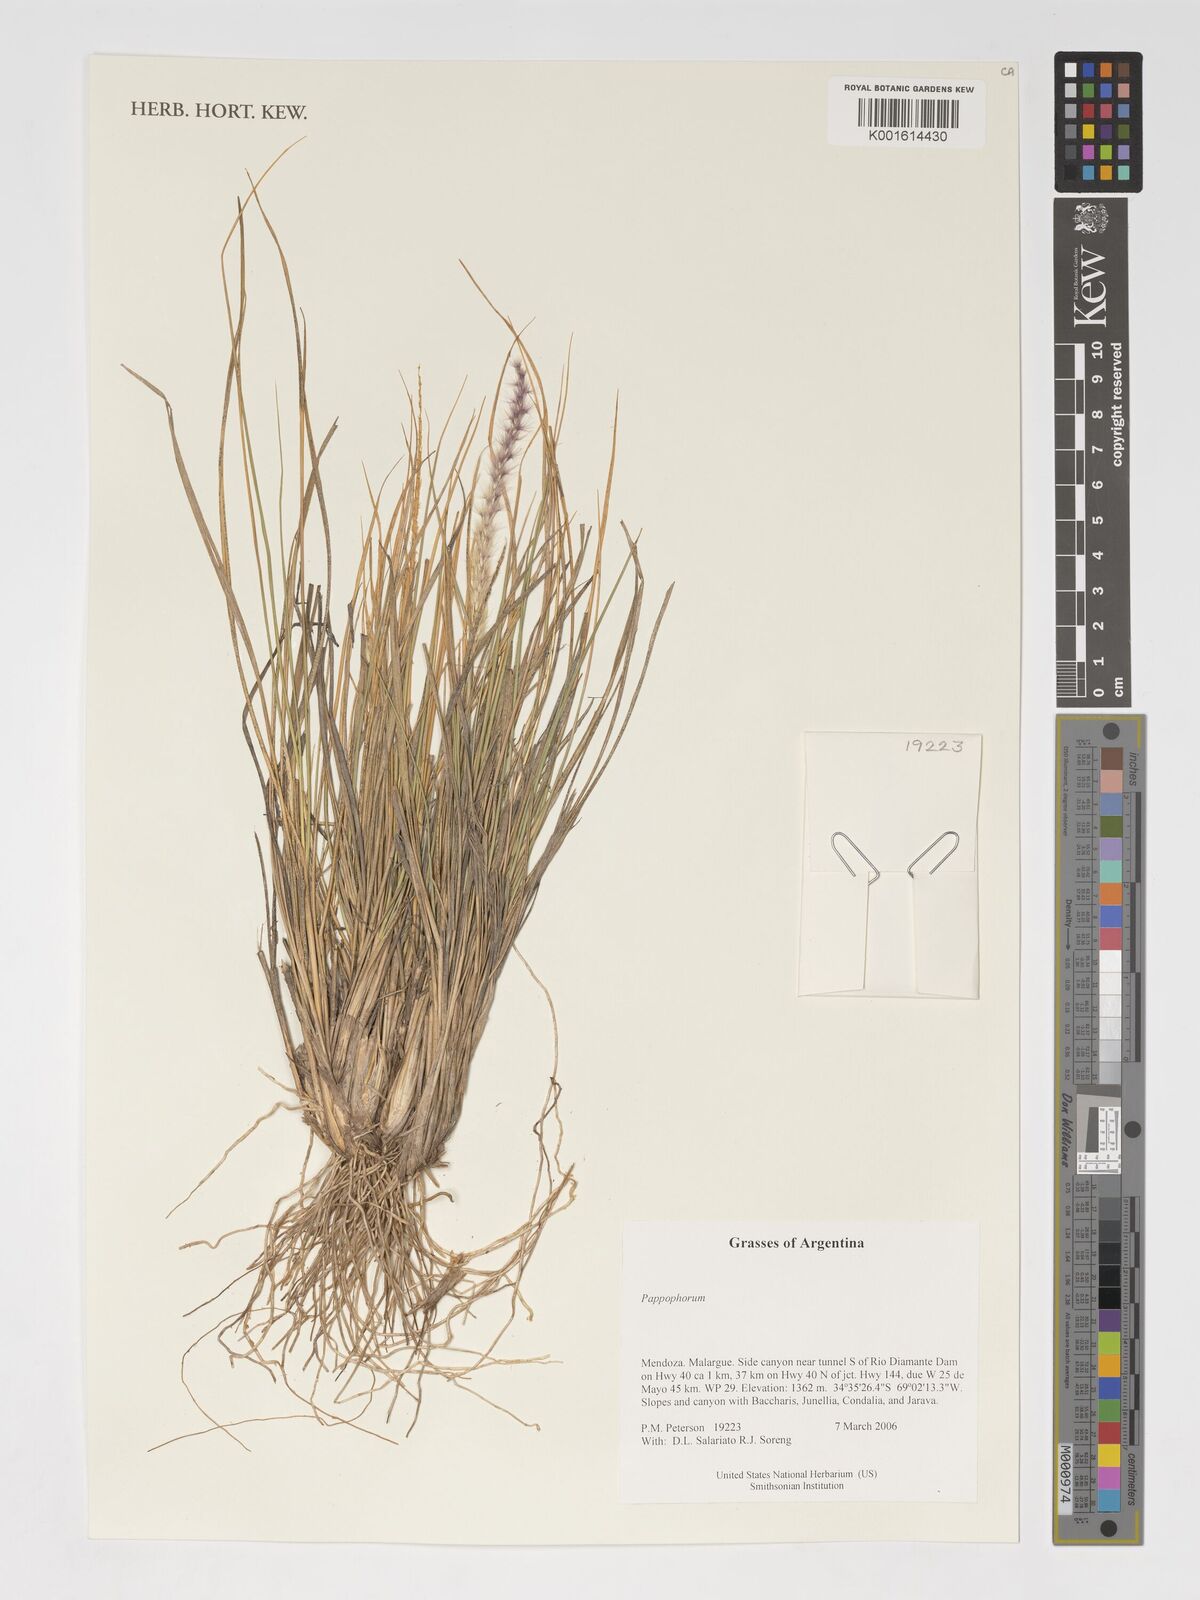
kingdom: Plantae
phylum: Tracheophyta
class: Liliopsida
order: Poales
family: Poaceae
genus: Pappophorum
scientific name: Pappophorum
